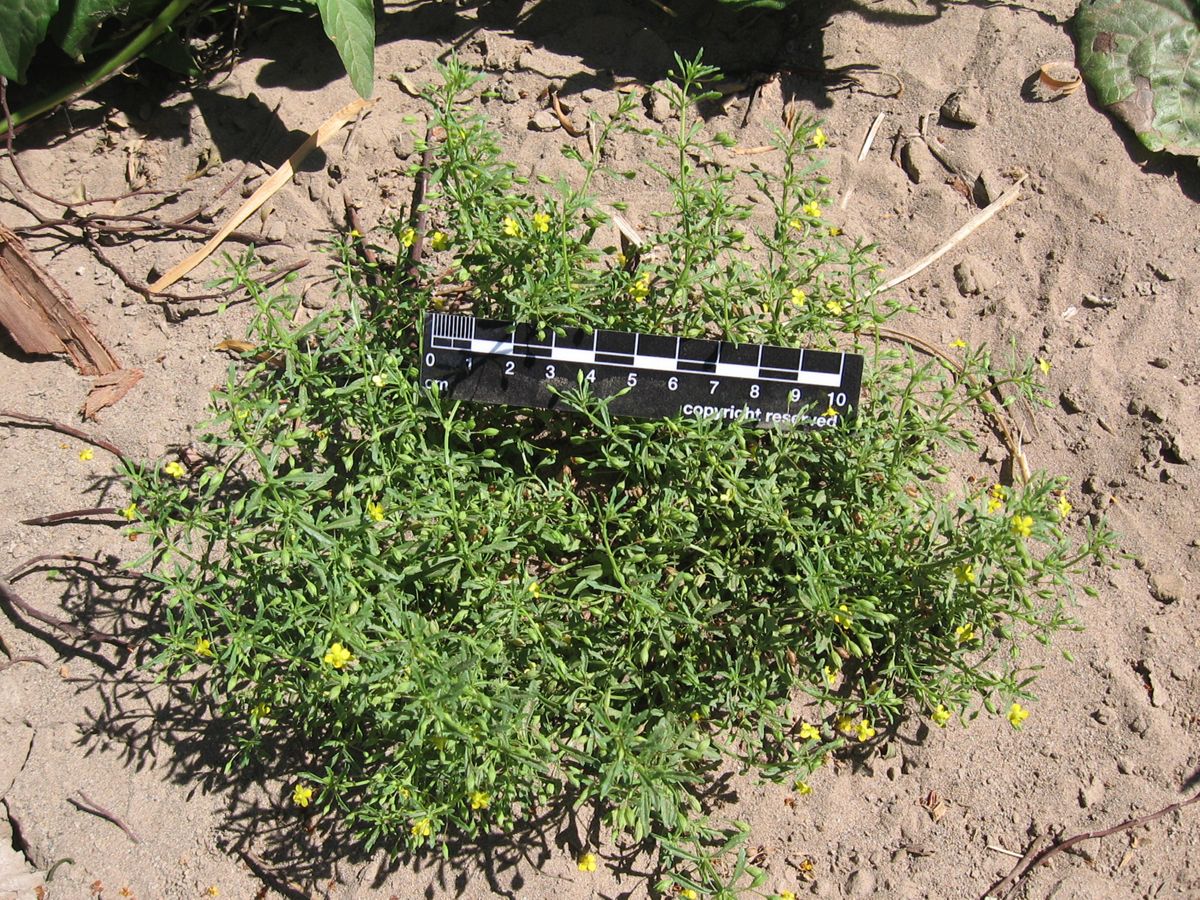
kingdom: Plantae
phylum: Tracheophyta
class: Magnoliopsida
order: Lamiales
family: Plantaginaceae
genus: Scoparia
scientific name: Scoparia montevidensis
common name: Broomwort
